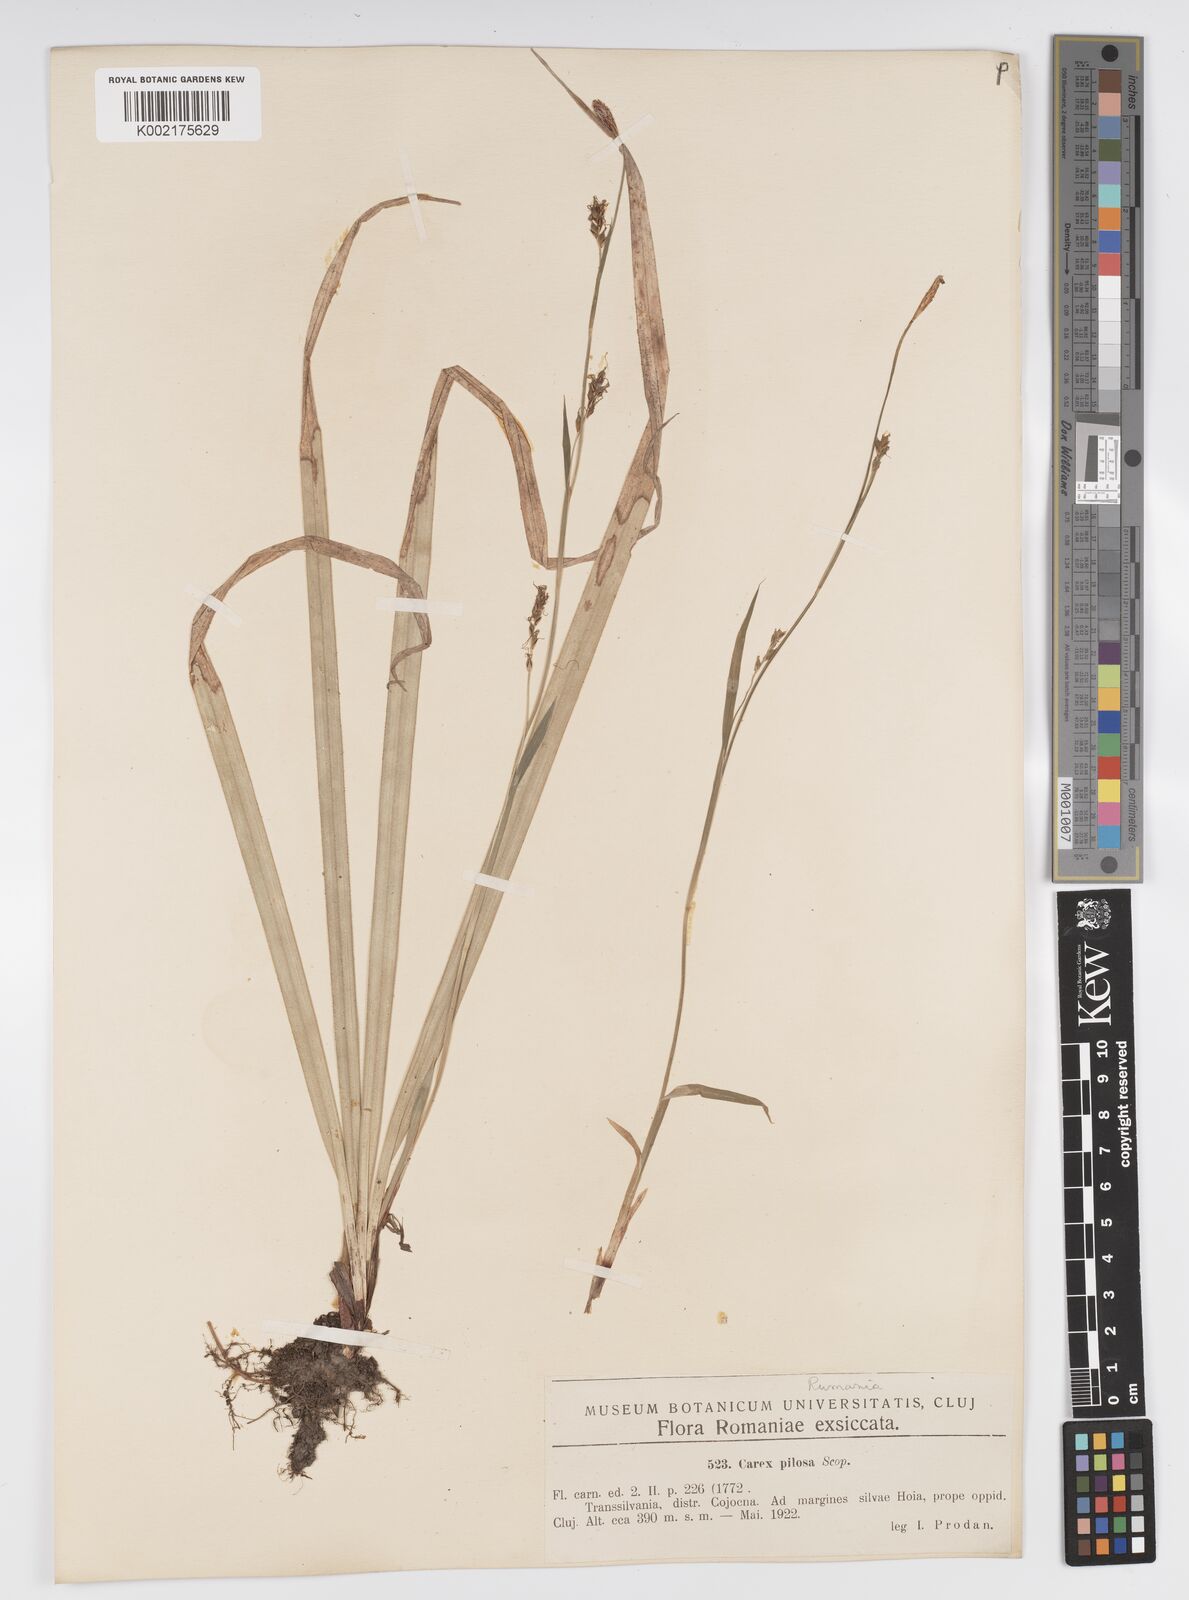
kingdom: Plantae
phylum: Tracheophyta
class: Liliopsida
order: Poales
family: Cyperaceae
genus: Carex
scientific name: Carex pilosa
